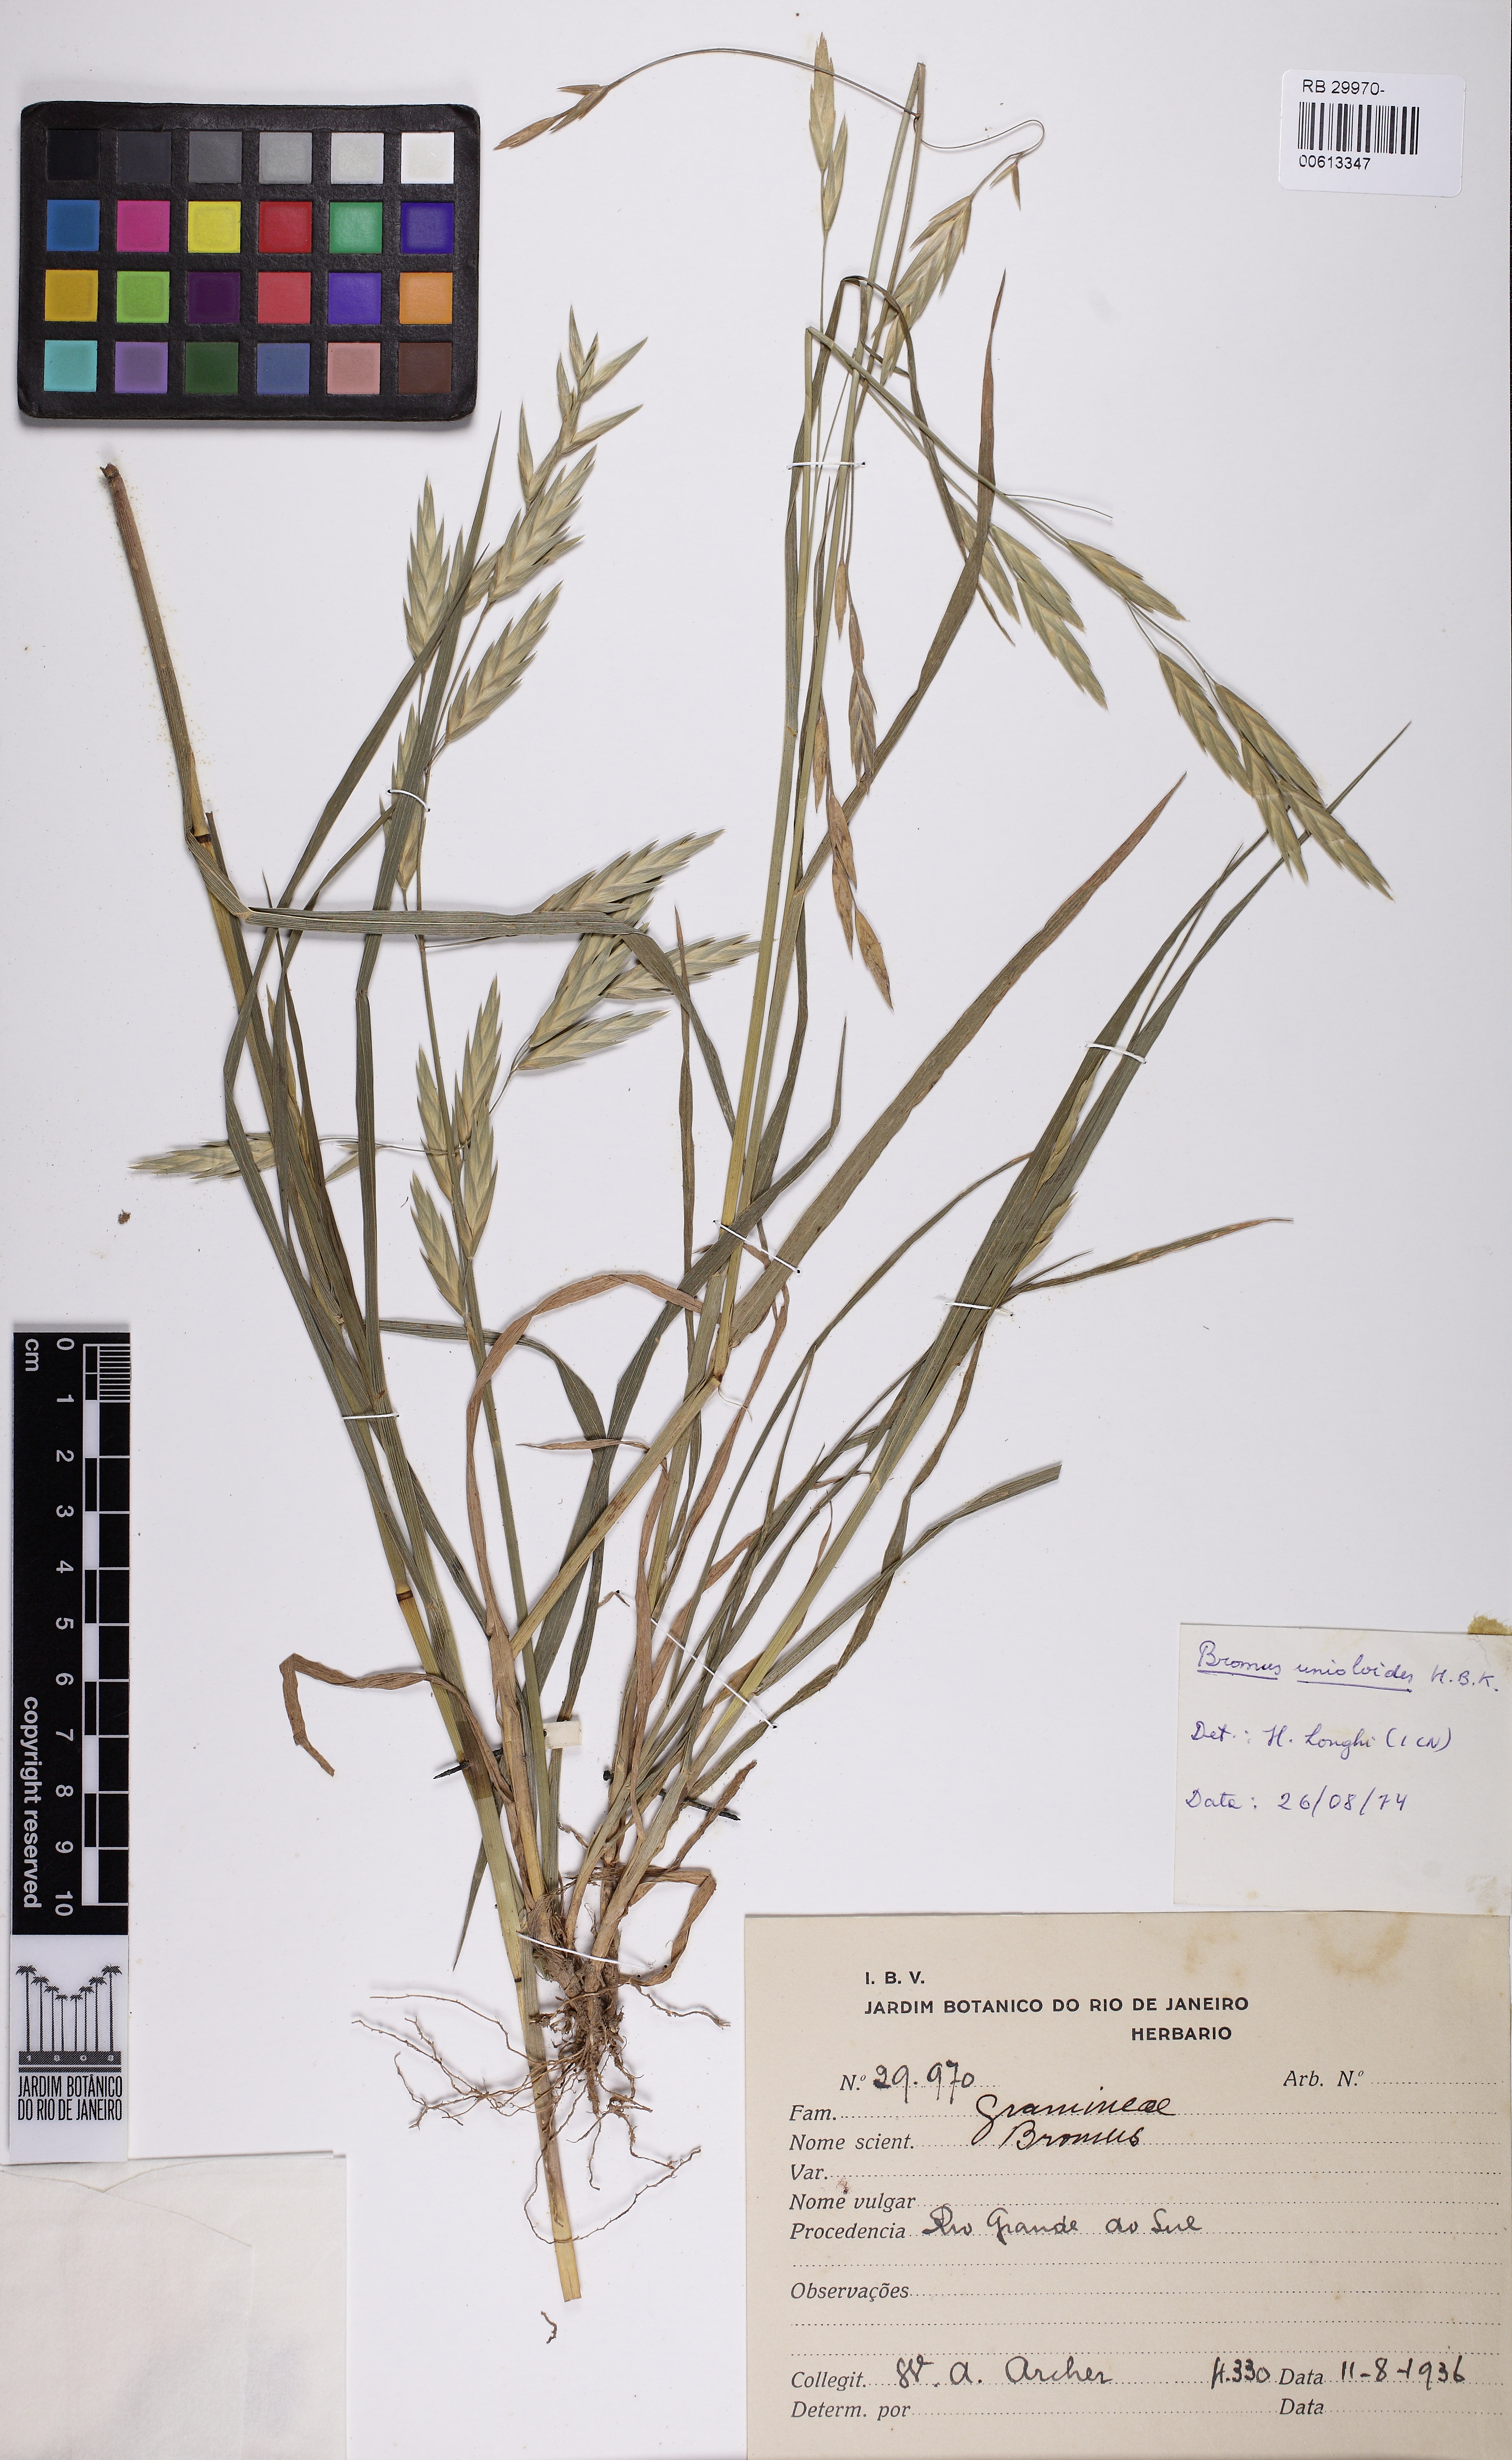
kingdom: Plantae
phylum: Tracheophyta
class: Liliopsida
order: Poales
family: Poaceae
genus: Bromus
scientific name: Bromus catharticus
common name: Rescuegrass
